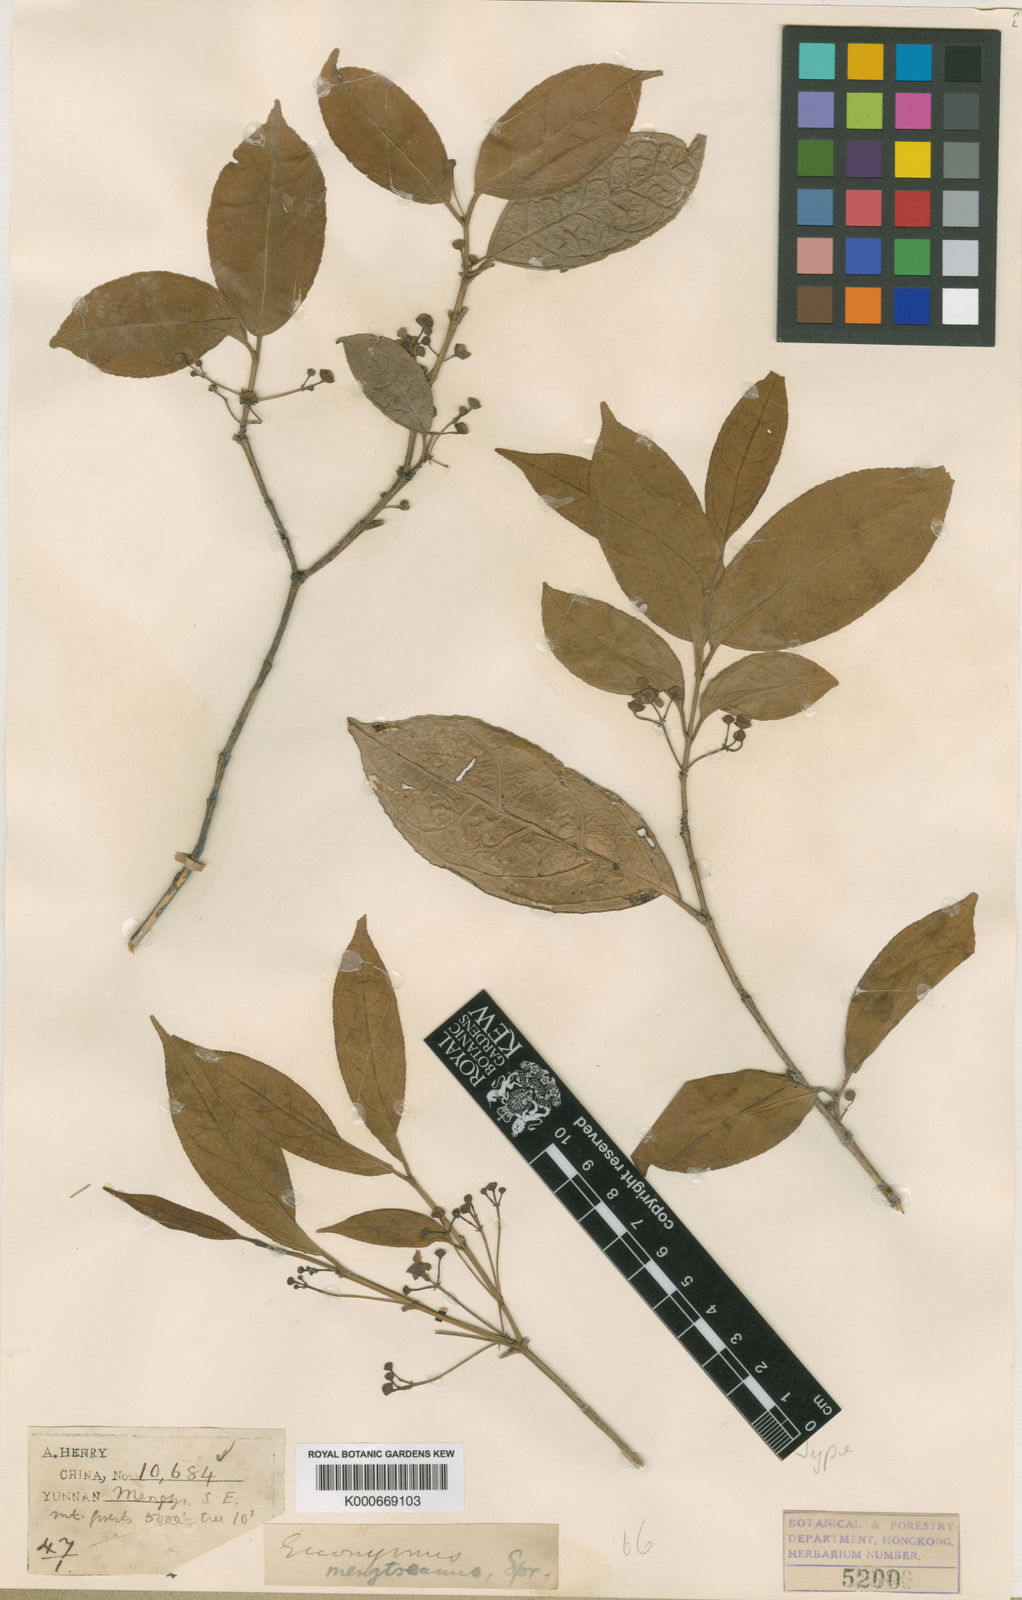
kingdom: Plantae
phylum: Tracheophyta
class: Magnoliopsida
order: Celastrales
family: Celastraceae
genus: Euonymus
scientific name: Euonymus balansae
